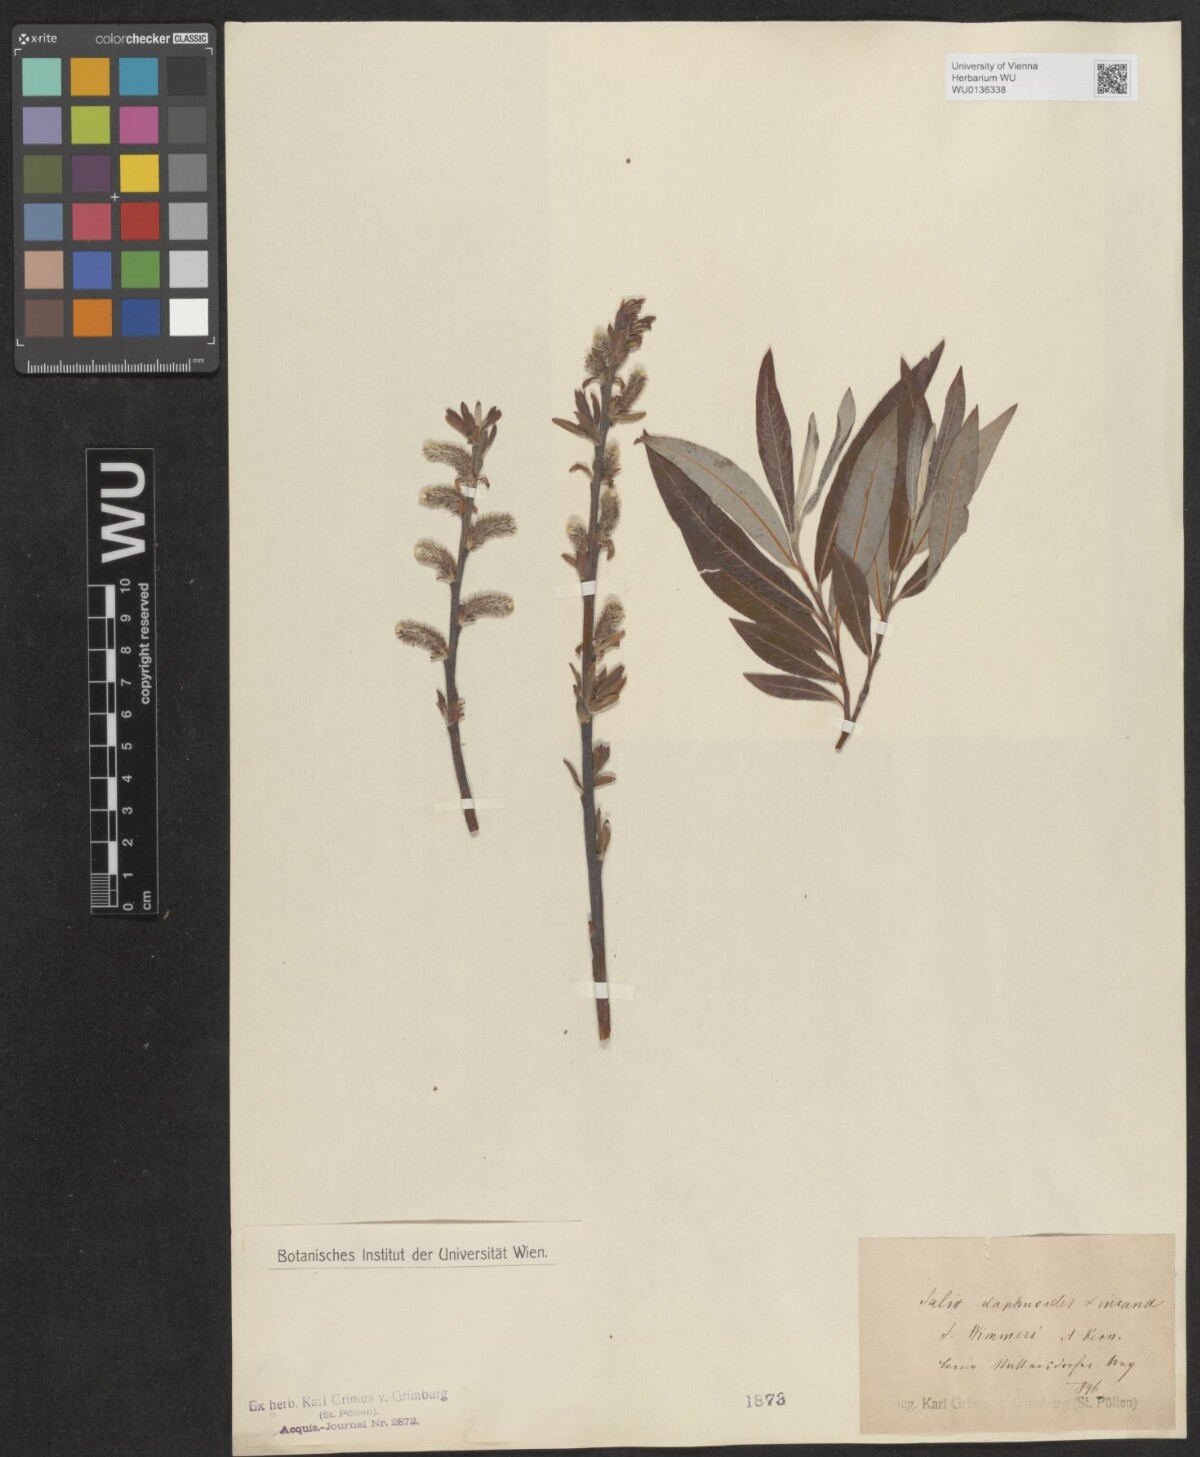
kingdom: Plantae
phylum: Tracheophyta
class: Magnoliopsida
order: Malpighiales
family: Salicaceae
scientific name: Salicaceae
